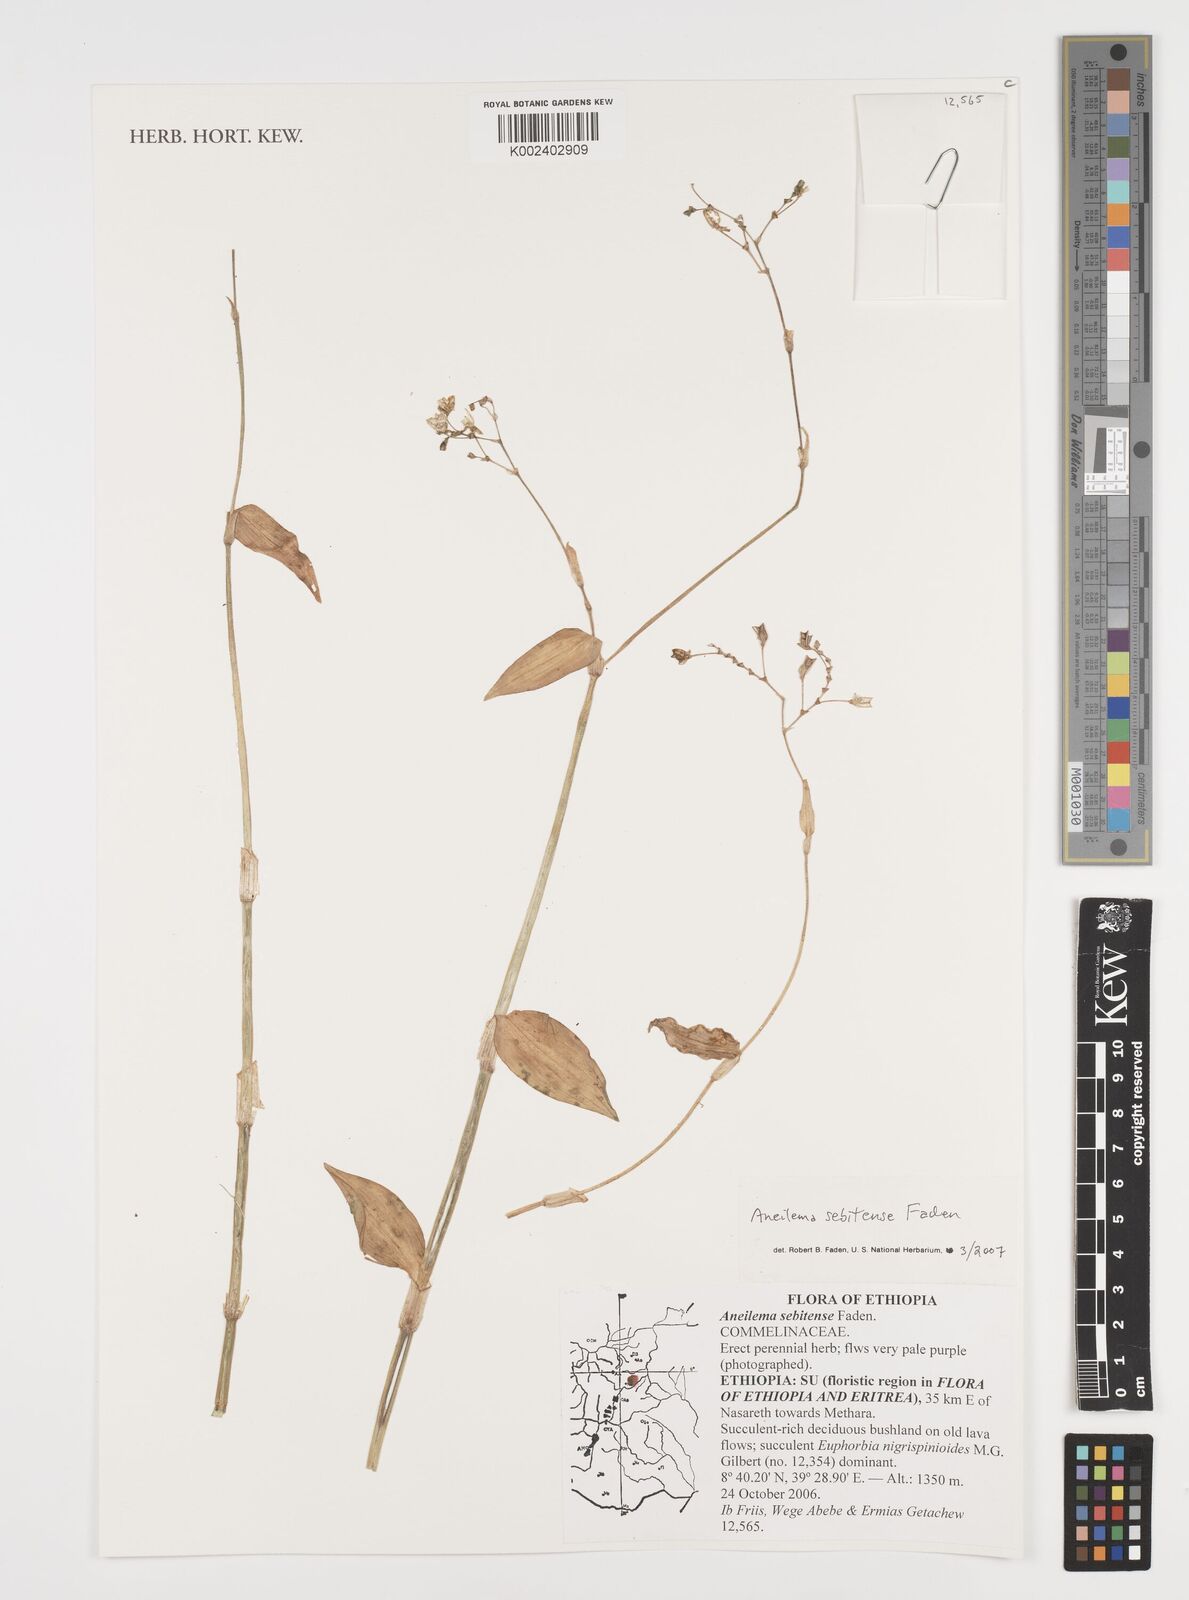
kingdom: Plantae
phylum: Tracheophyta
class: Liliopsida
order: Commelinales
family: Commelinaceae
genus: Aneilema
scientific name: Aneilema sebitense
